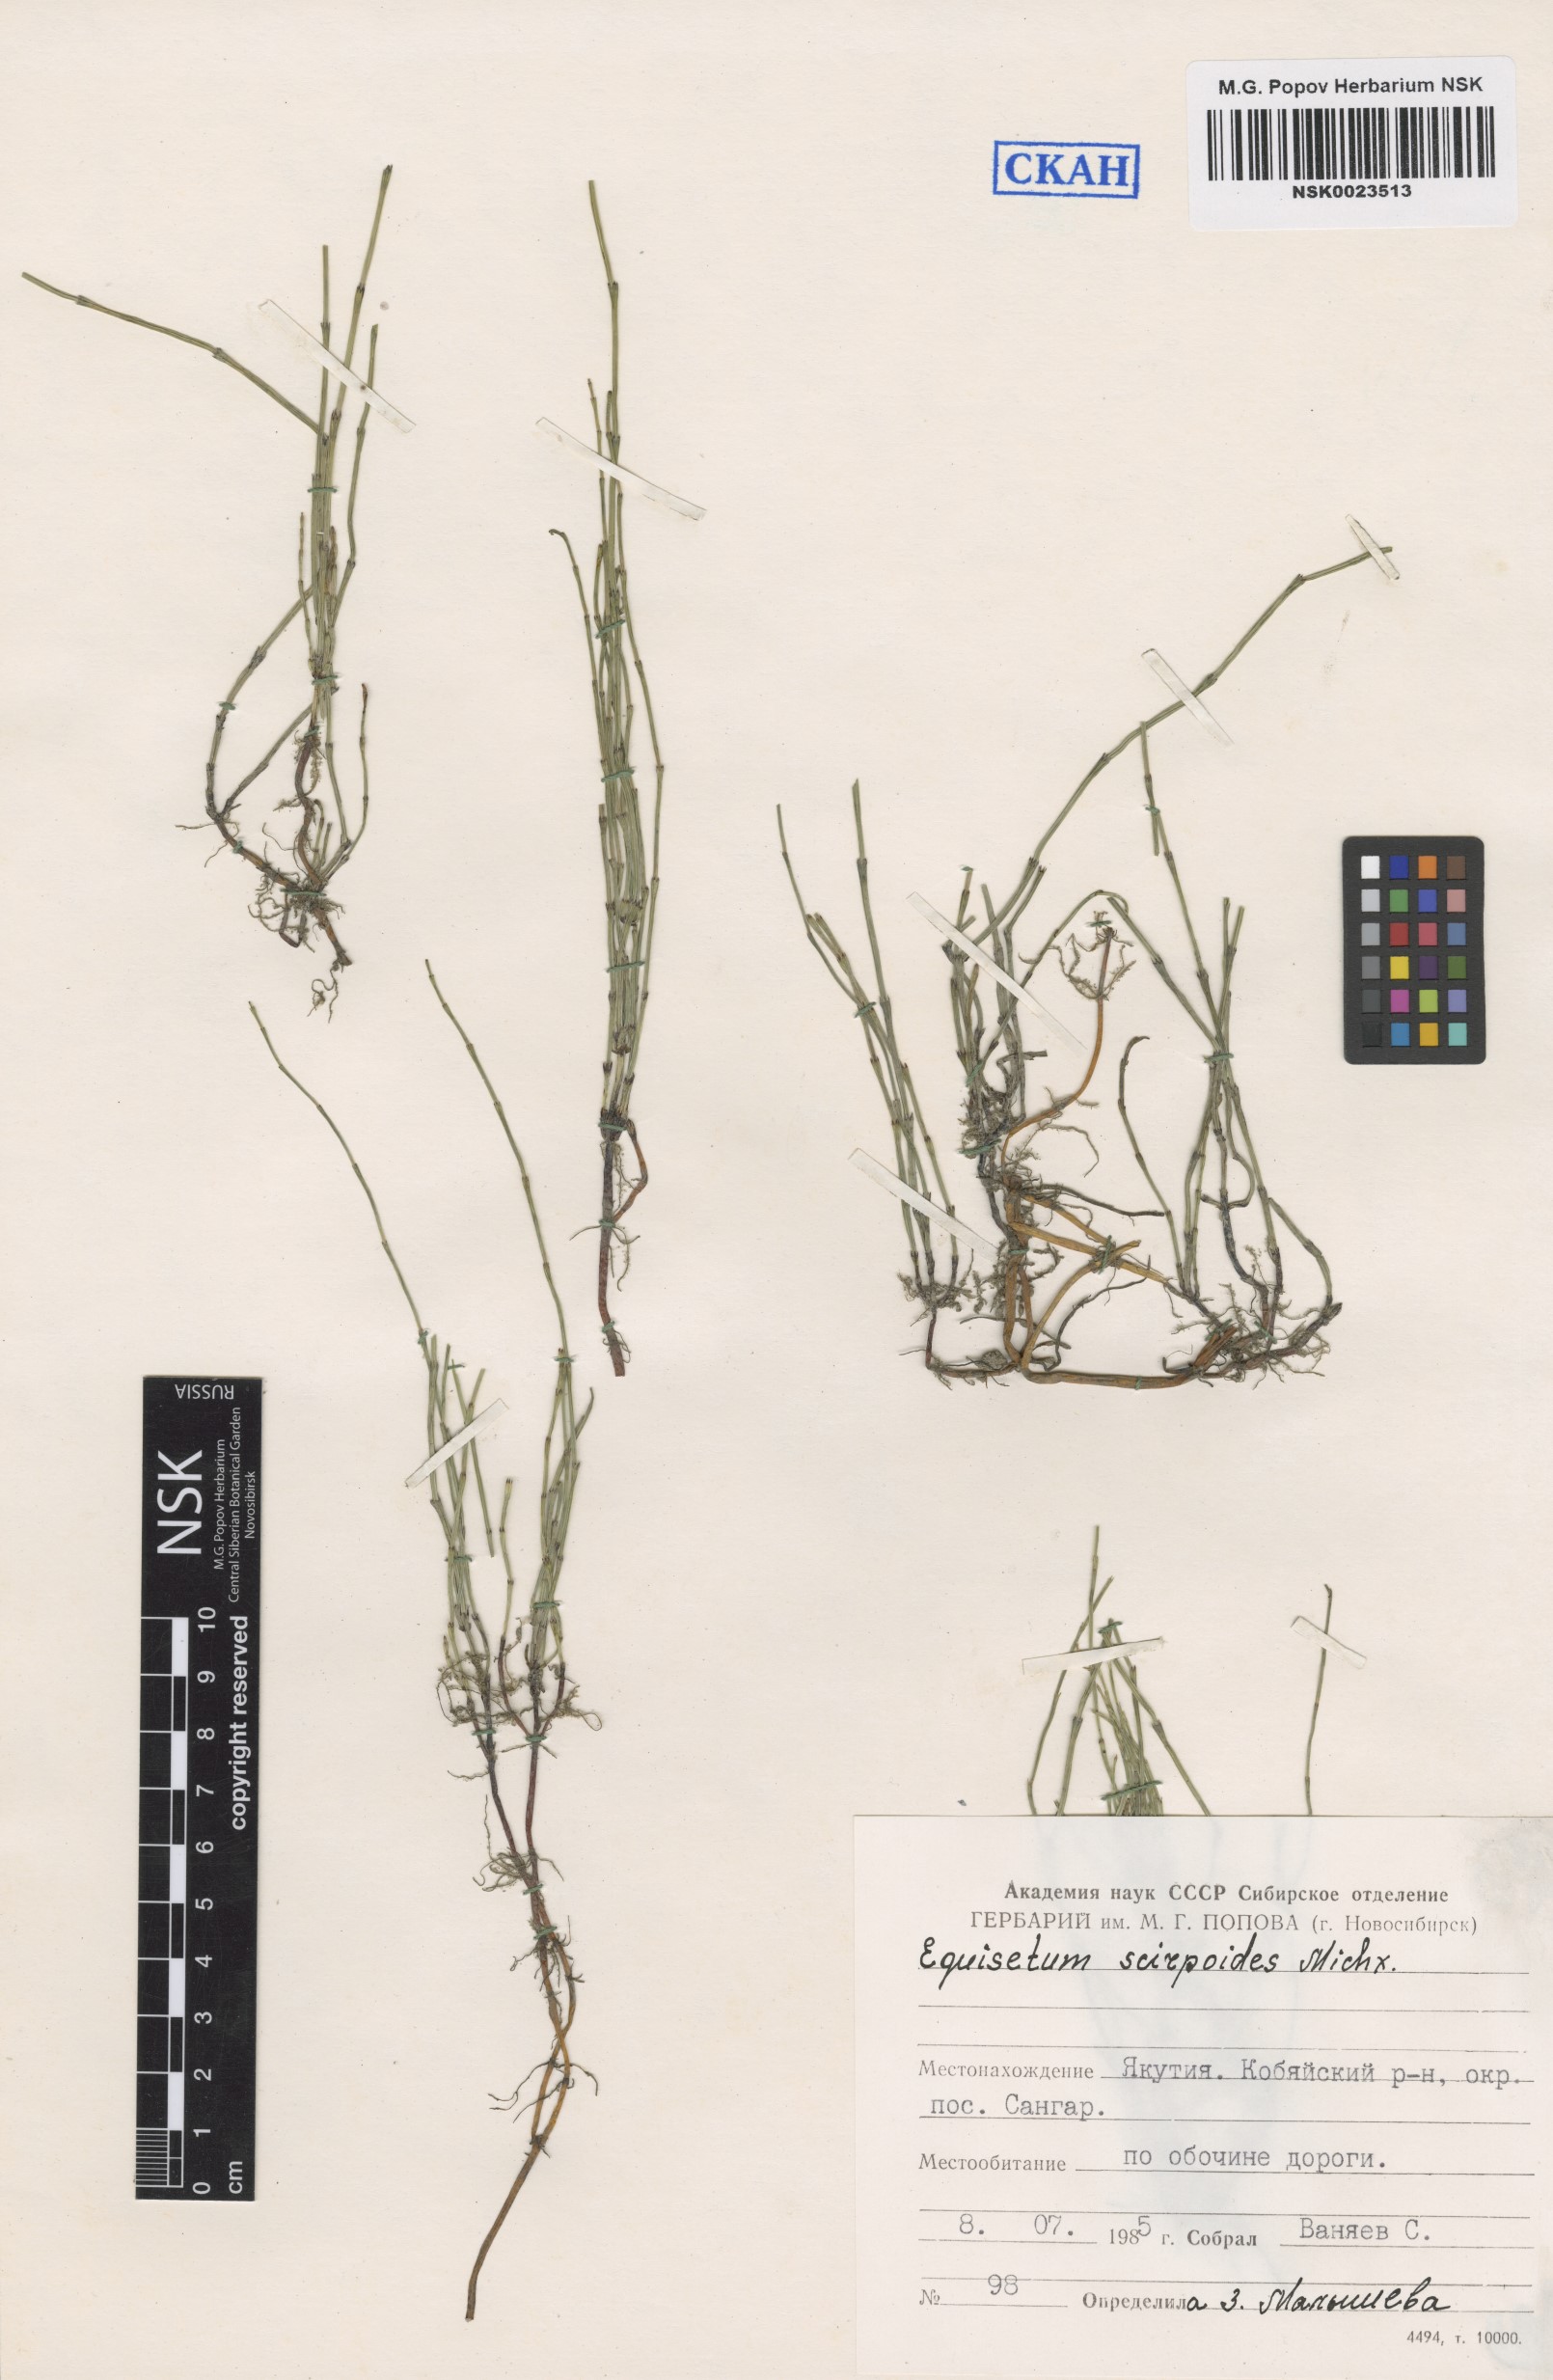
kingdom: Plantae
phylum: Tracheophyta
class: Polypodiopsida
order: Equisetales
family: Equisetaceae
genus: Equisetum
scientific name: Equisetum scirpoides
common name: Delicate horsetail
